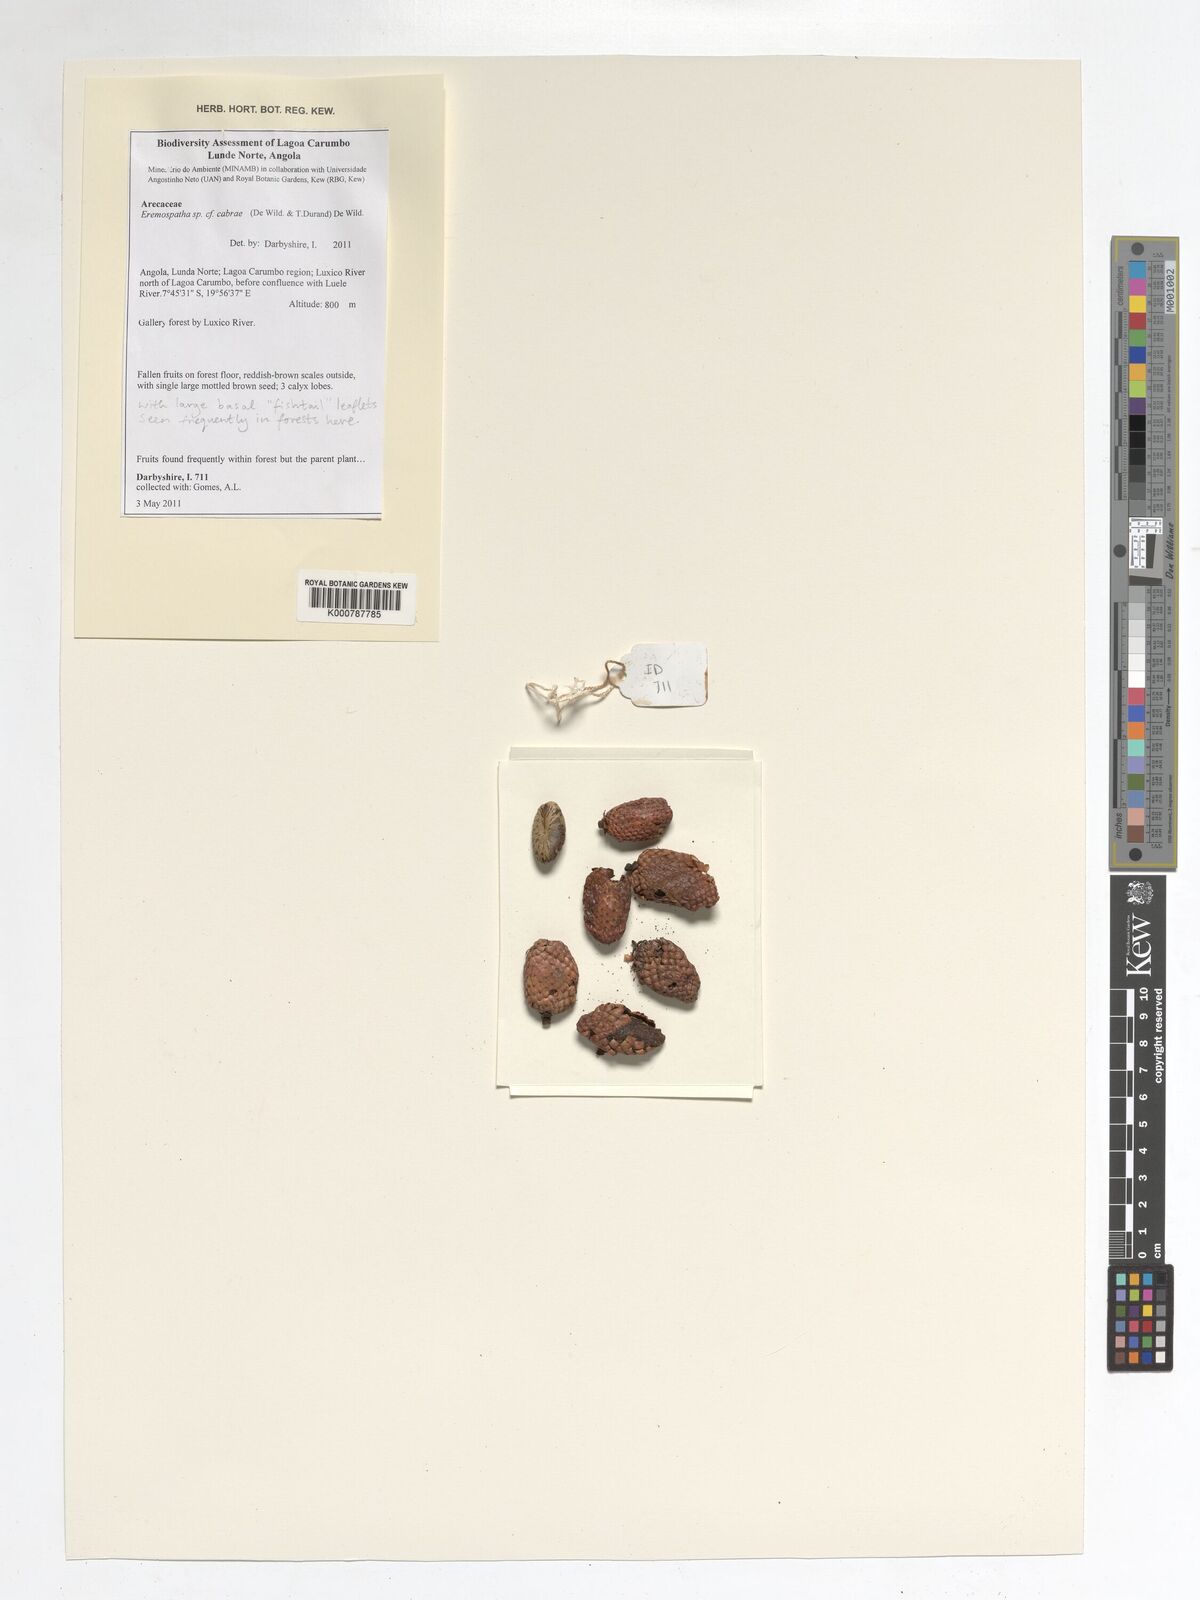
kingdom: Plantae
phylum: Tracheophyta
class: Liliopsida
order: Arecales
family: Arecaceae
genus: Eremospatha
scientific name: Eremospatha cabrae
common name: Rattan
